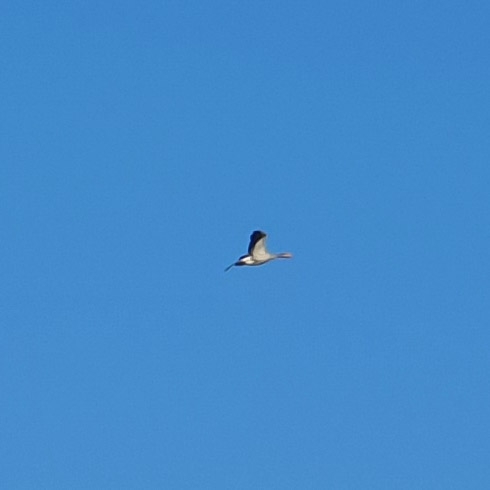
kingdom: Animalia
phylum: Chordata
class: Aves
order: Anseriformes
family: Anatidae
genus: Anser
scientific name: Anser anser
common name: Grågås
